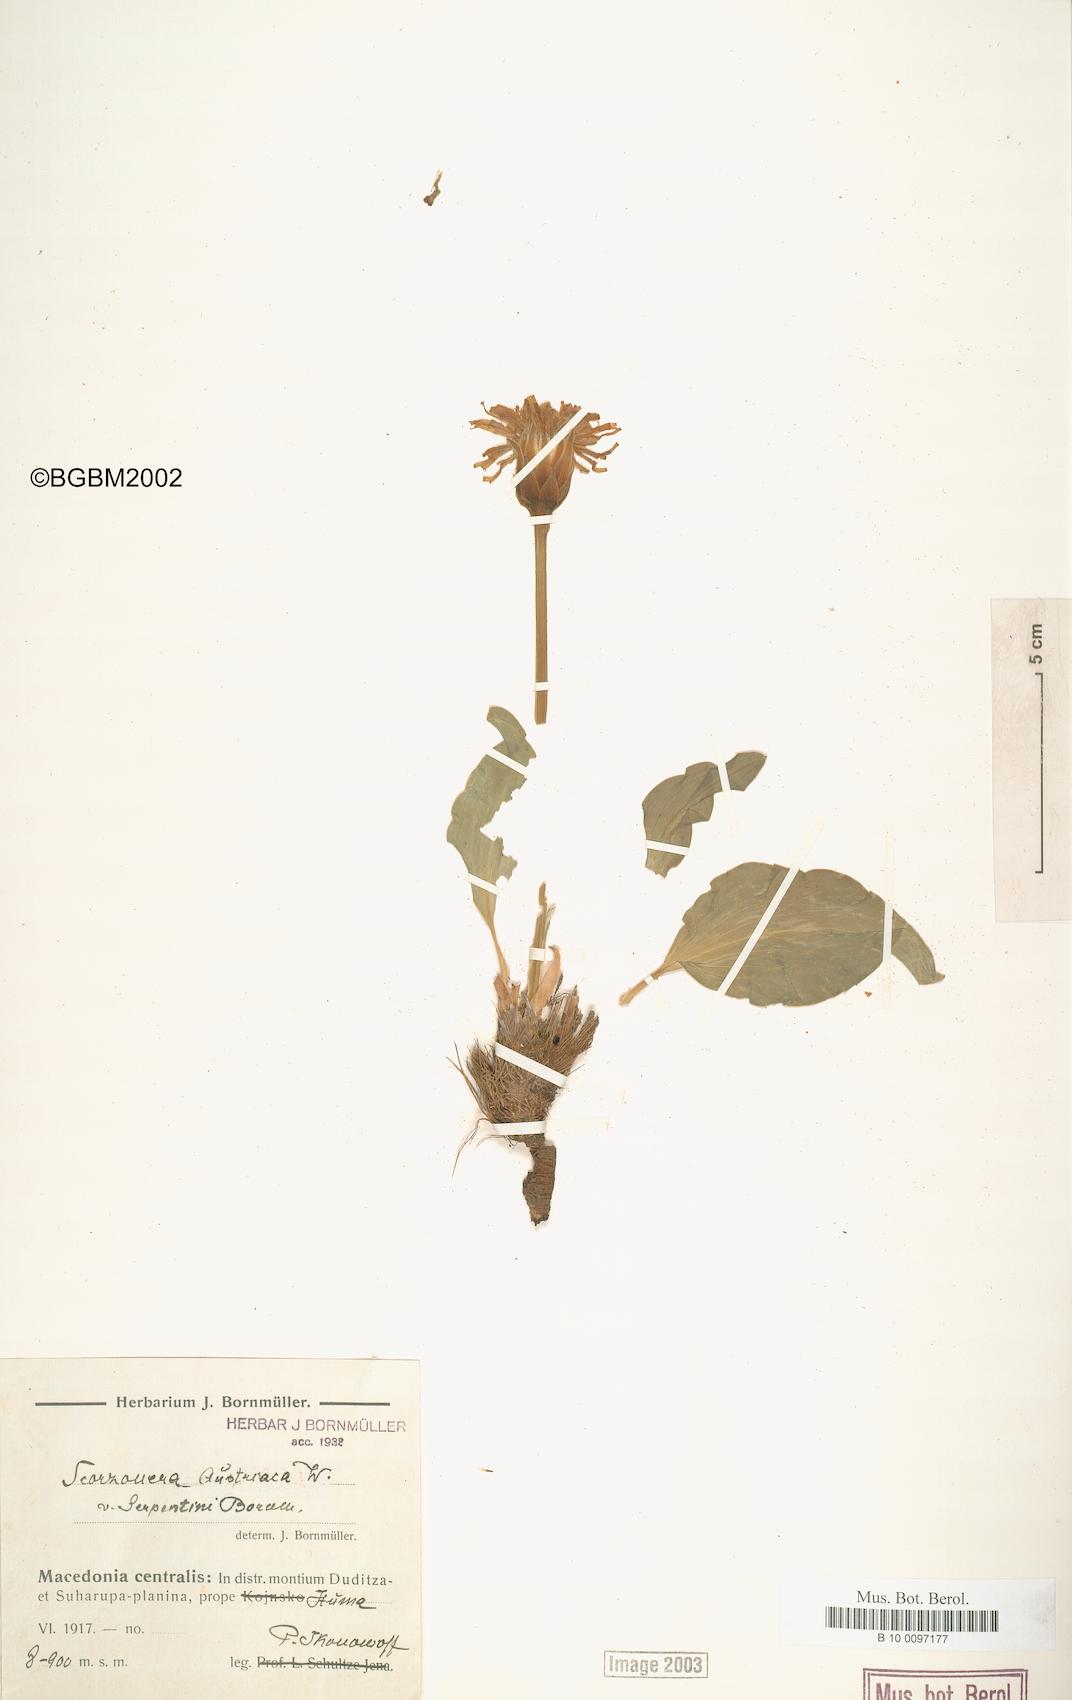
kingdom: Plantae
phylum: Tracheophyta
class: Magnoliopsida
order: Asterales
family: Asteraceae
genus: Scorzonera
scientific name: Scorzonera austriaca
